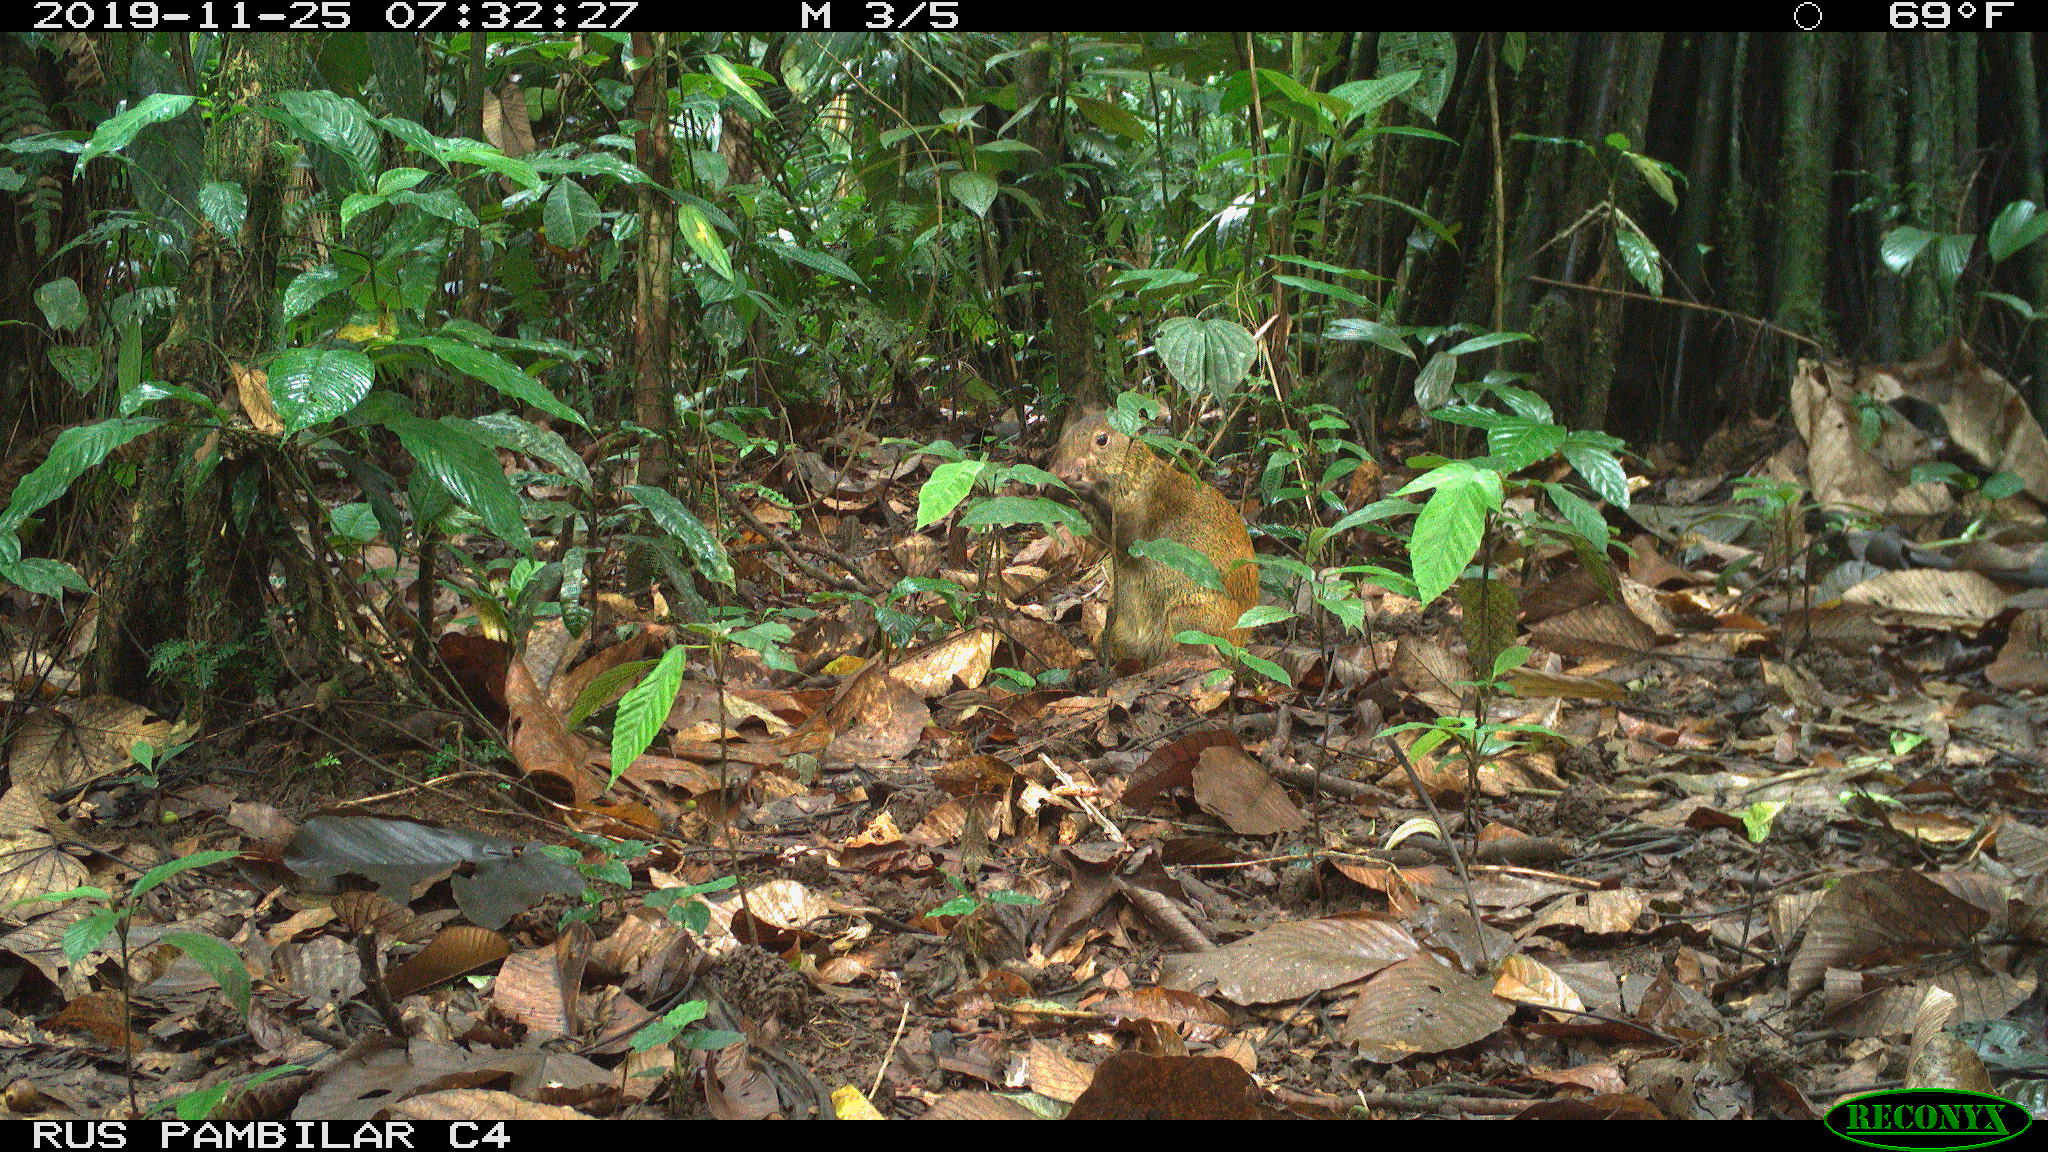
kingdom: Animalia
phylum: Chordata
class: Mammalia
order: Rodentia
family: Dasyproctidae
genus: Dasyprocta
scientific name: Dasyprocta punctata
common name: Central american agouti
